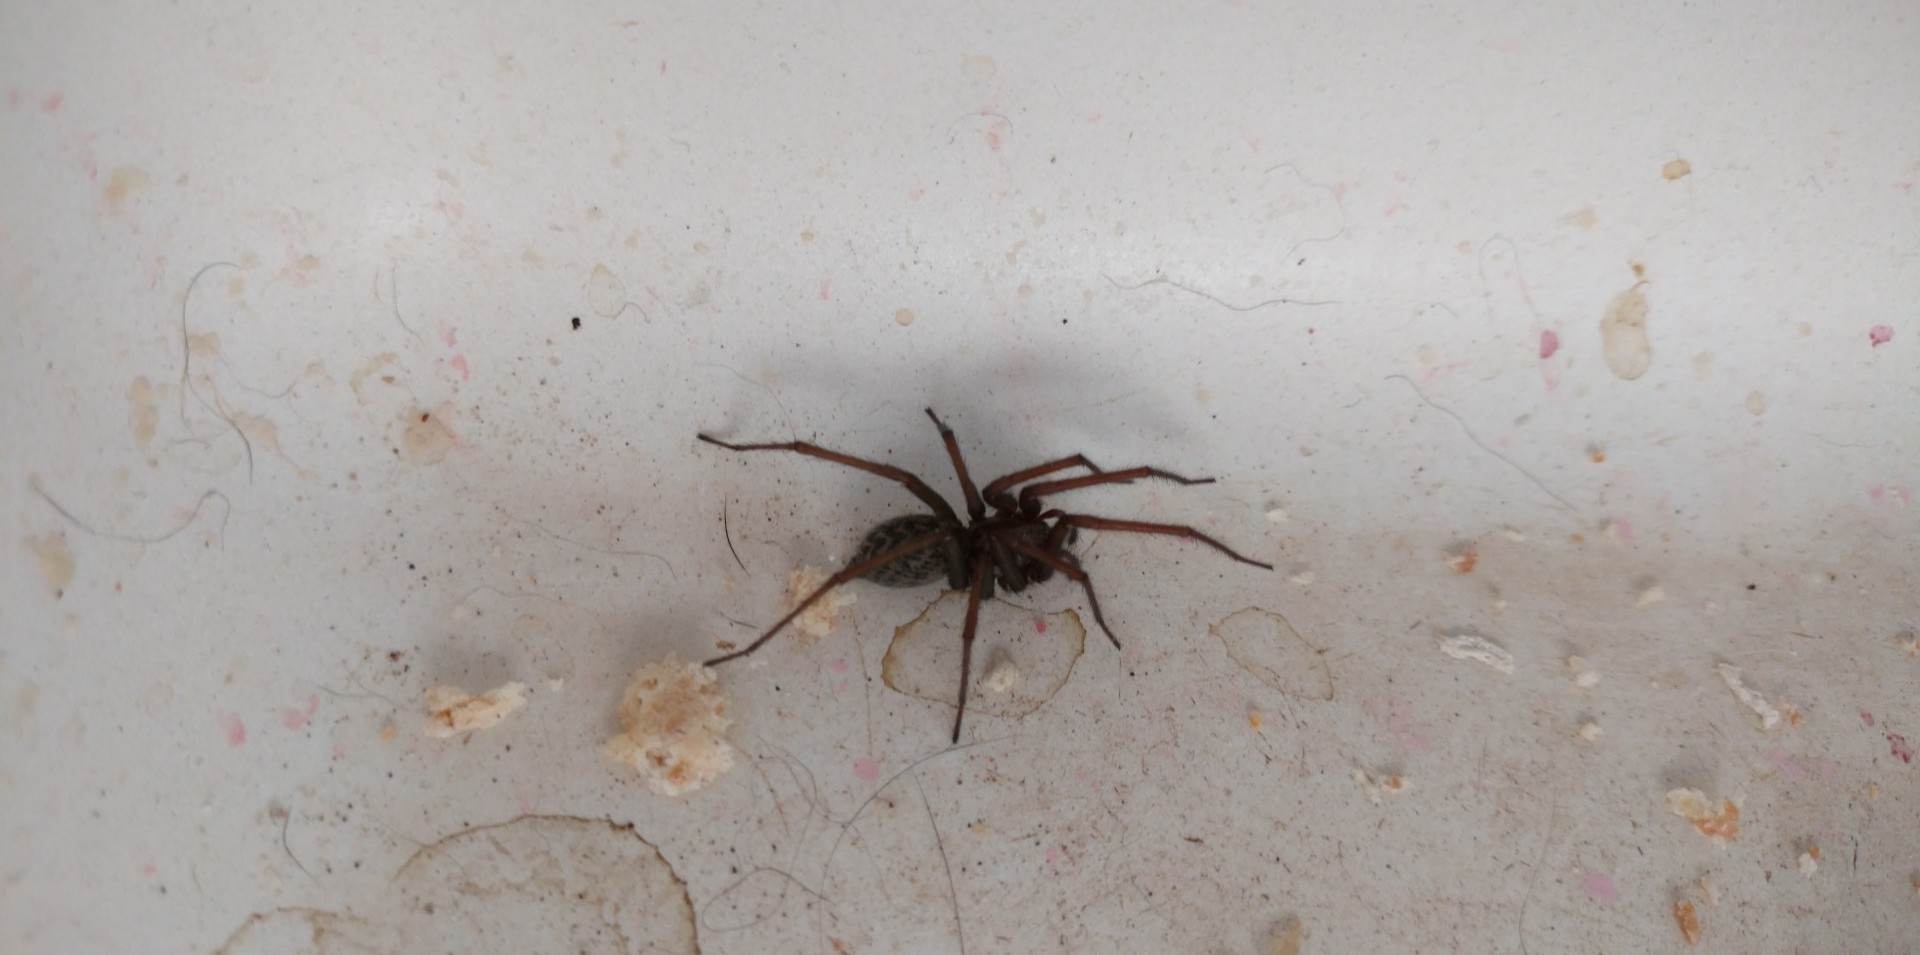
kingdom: Animalia
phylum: Arthropoda
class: Arachnida
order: Araneae
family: Agelenidae
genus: Eratigena
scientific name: Eratigena atrica
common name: Stor husedderkop
